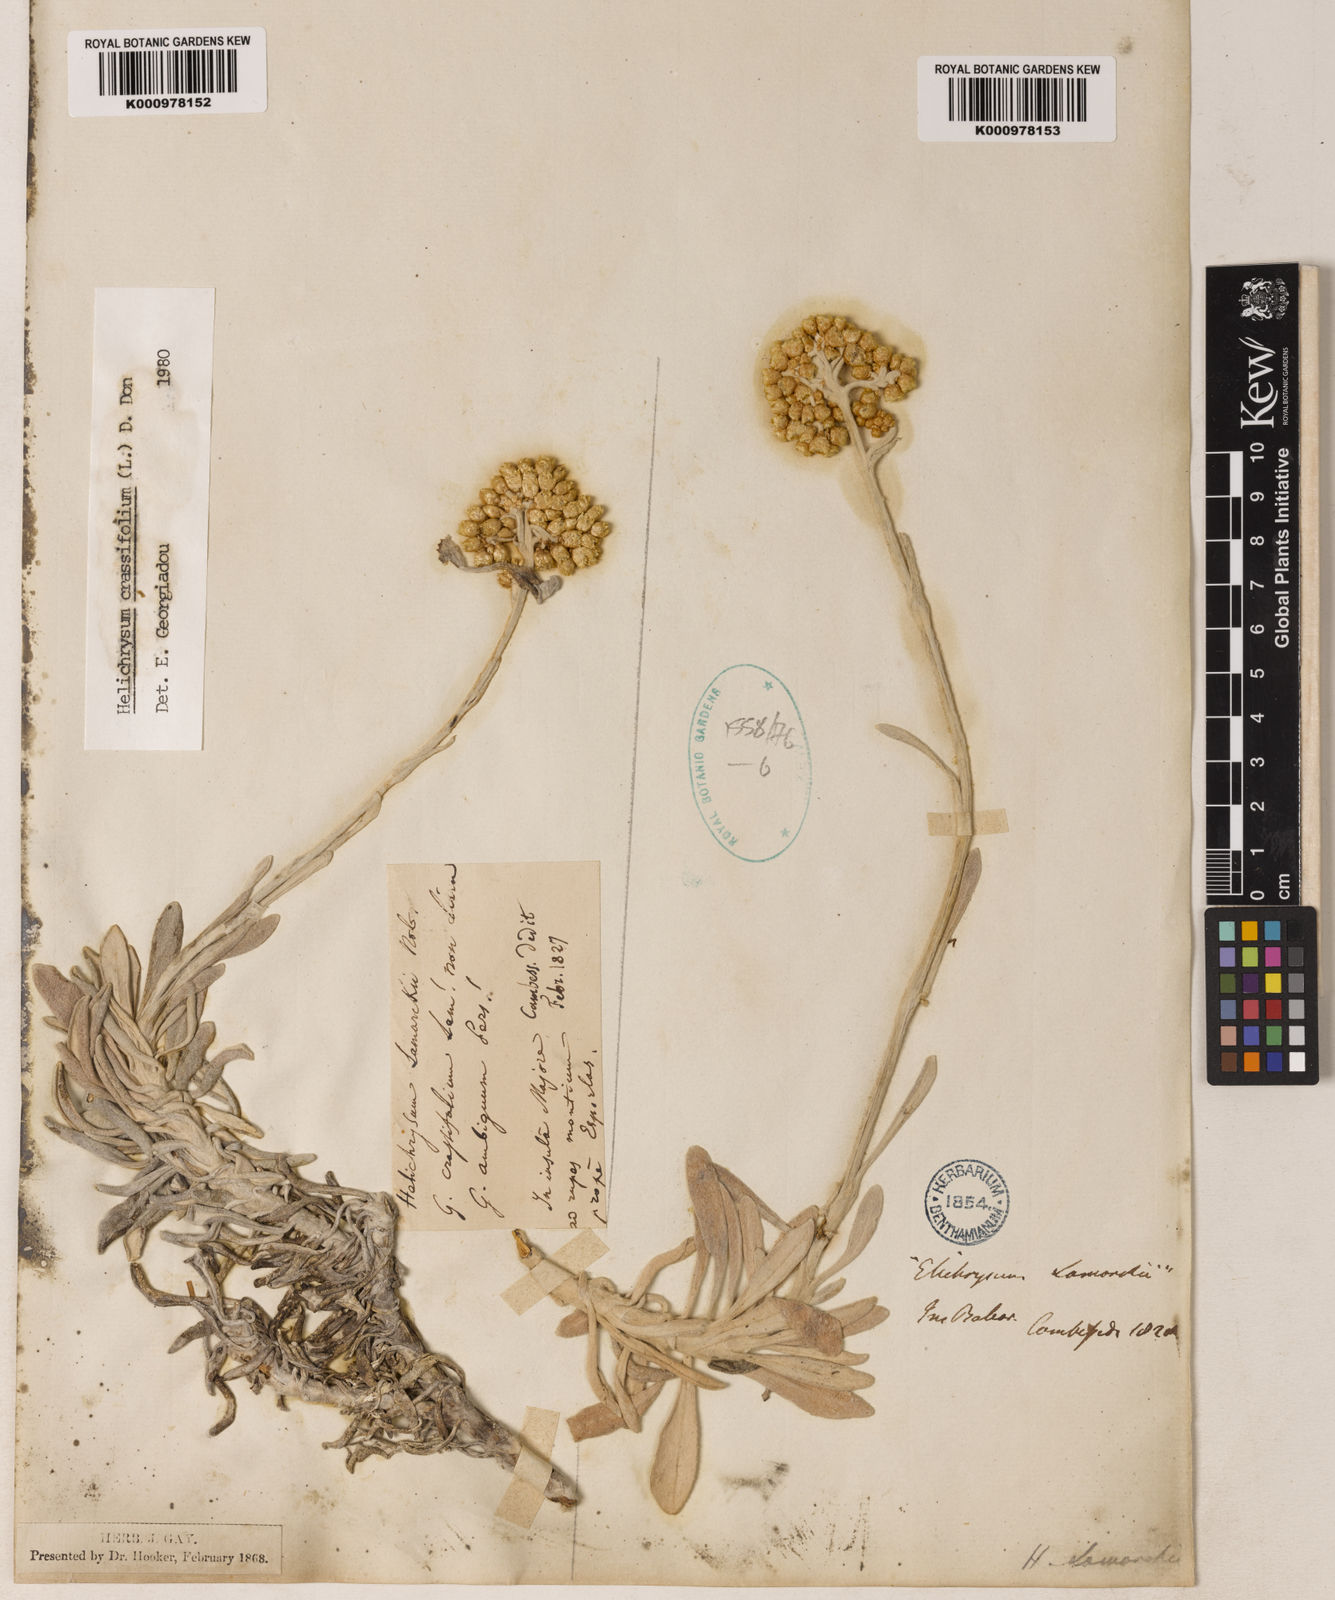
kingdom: Plantae
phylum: Tracheophyta
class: Magnoliopsida
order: Asterales
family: Asteraceae
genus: Leiocarpa
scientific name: Leiocarpa semicalva
